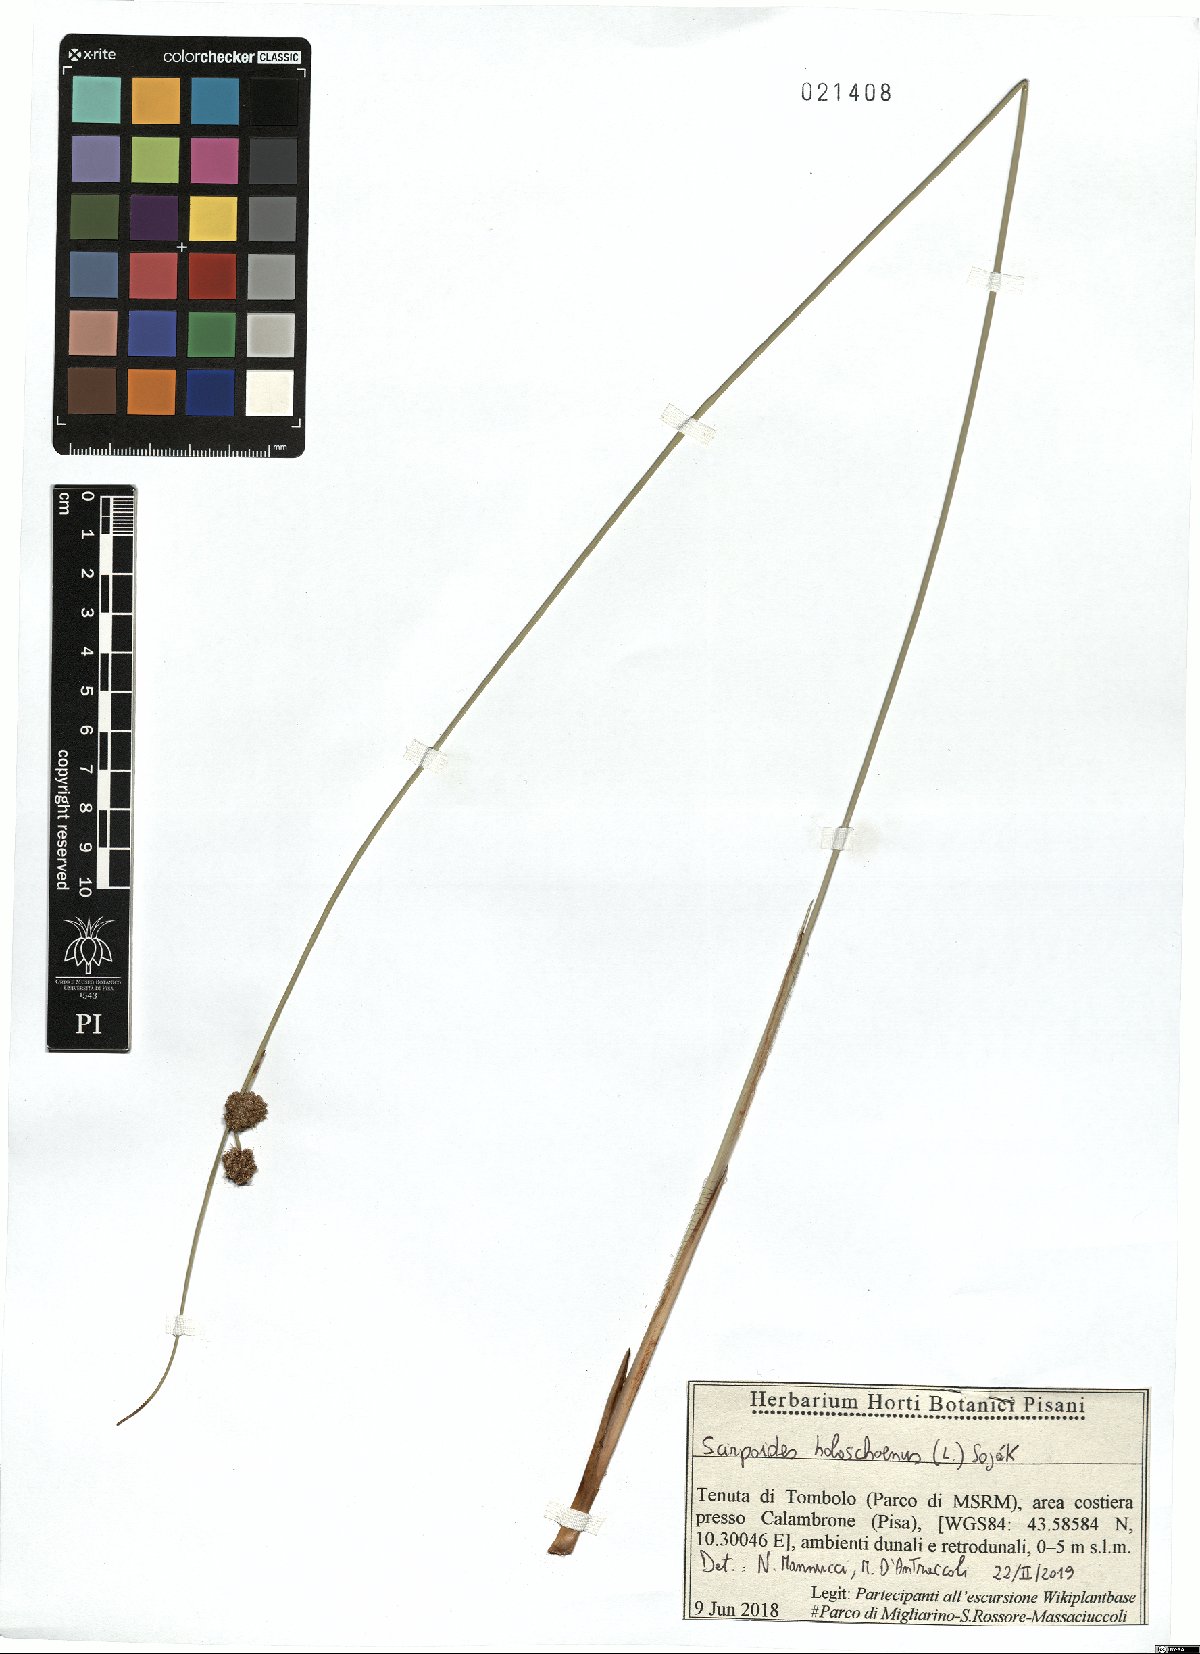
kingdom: Plantae
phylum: Tracheophyta
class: Liliopsida
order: Poales
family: Cyperaceae
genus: Scirpoides
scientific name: Scirpoides holoschoenus
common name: Round-headed club-rush
